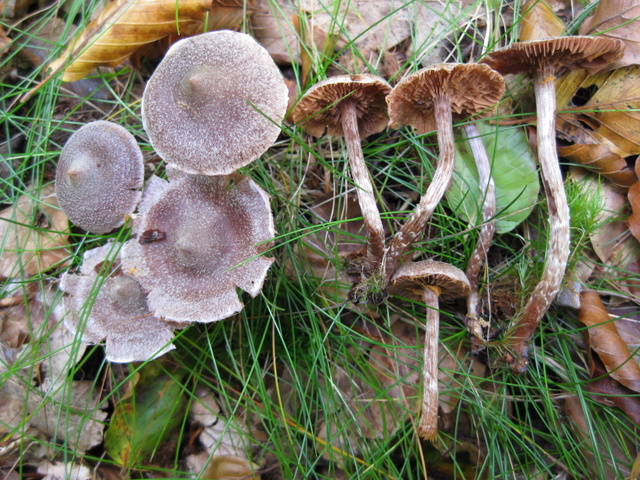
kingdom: Fungi
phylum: Basidiomycota
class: Agaricomycetes
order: Agaricales
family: Cortinariaceae
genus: Cortinarius
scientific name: Cortinarius
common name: pelargonie-slørhat
